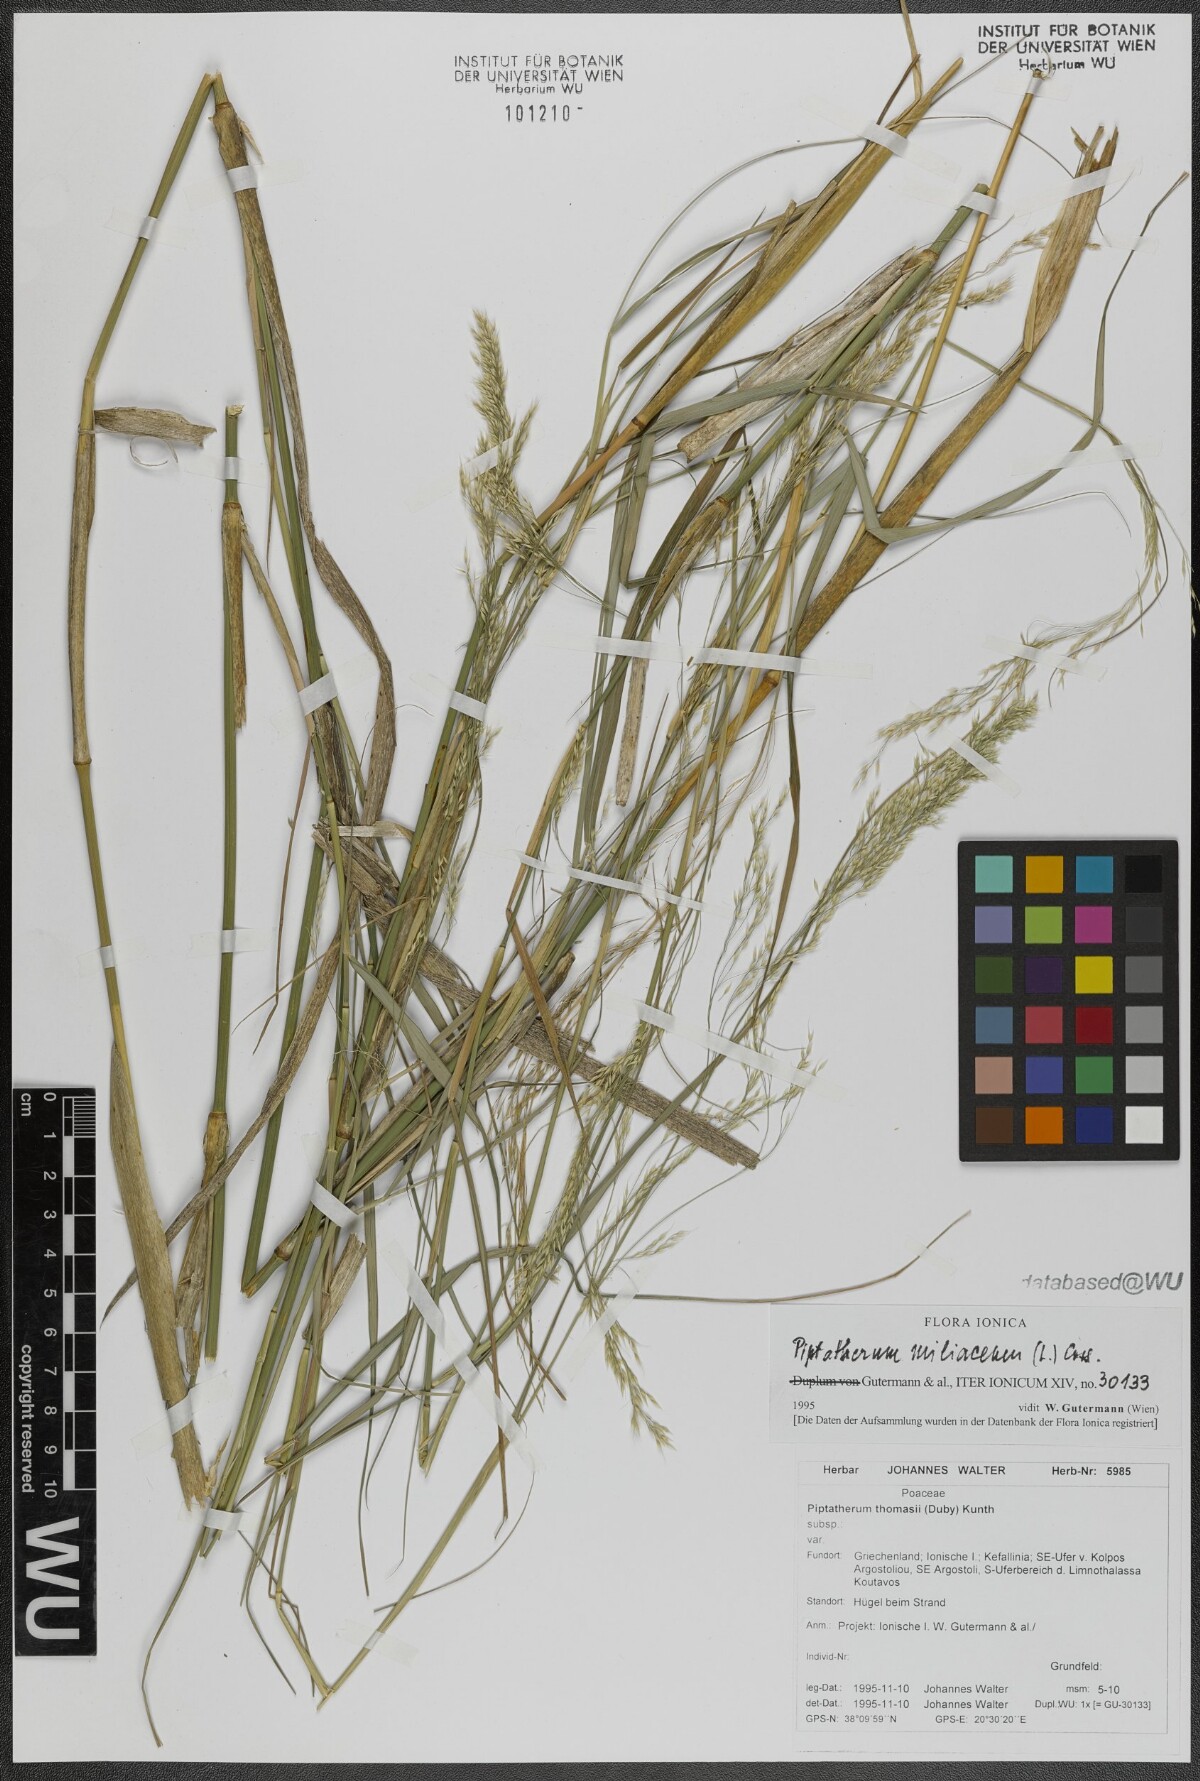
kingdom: Plantae
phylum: Tracheophyta
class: Liliopsida
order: Poales
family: Poaceae
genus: Oloptum
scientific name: Oloptum miliaceum
